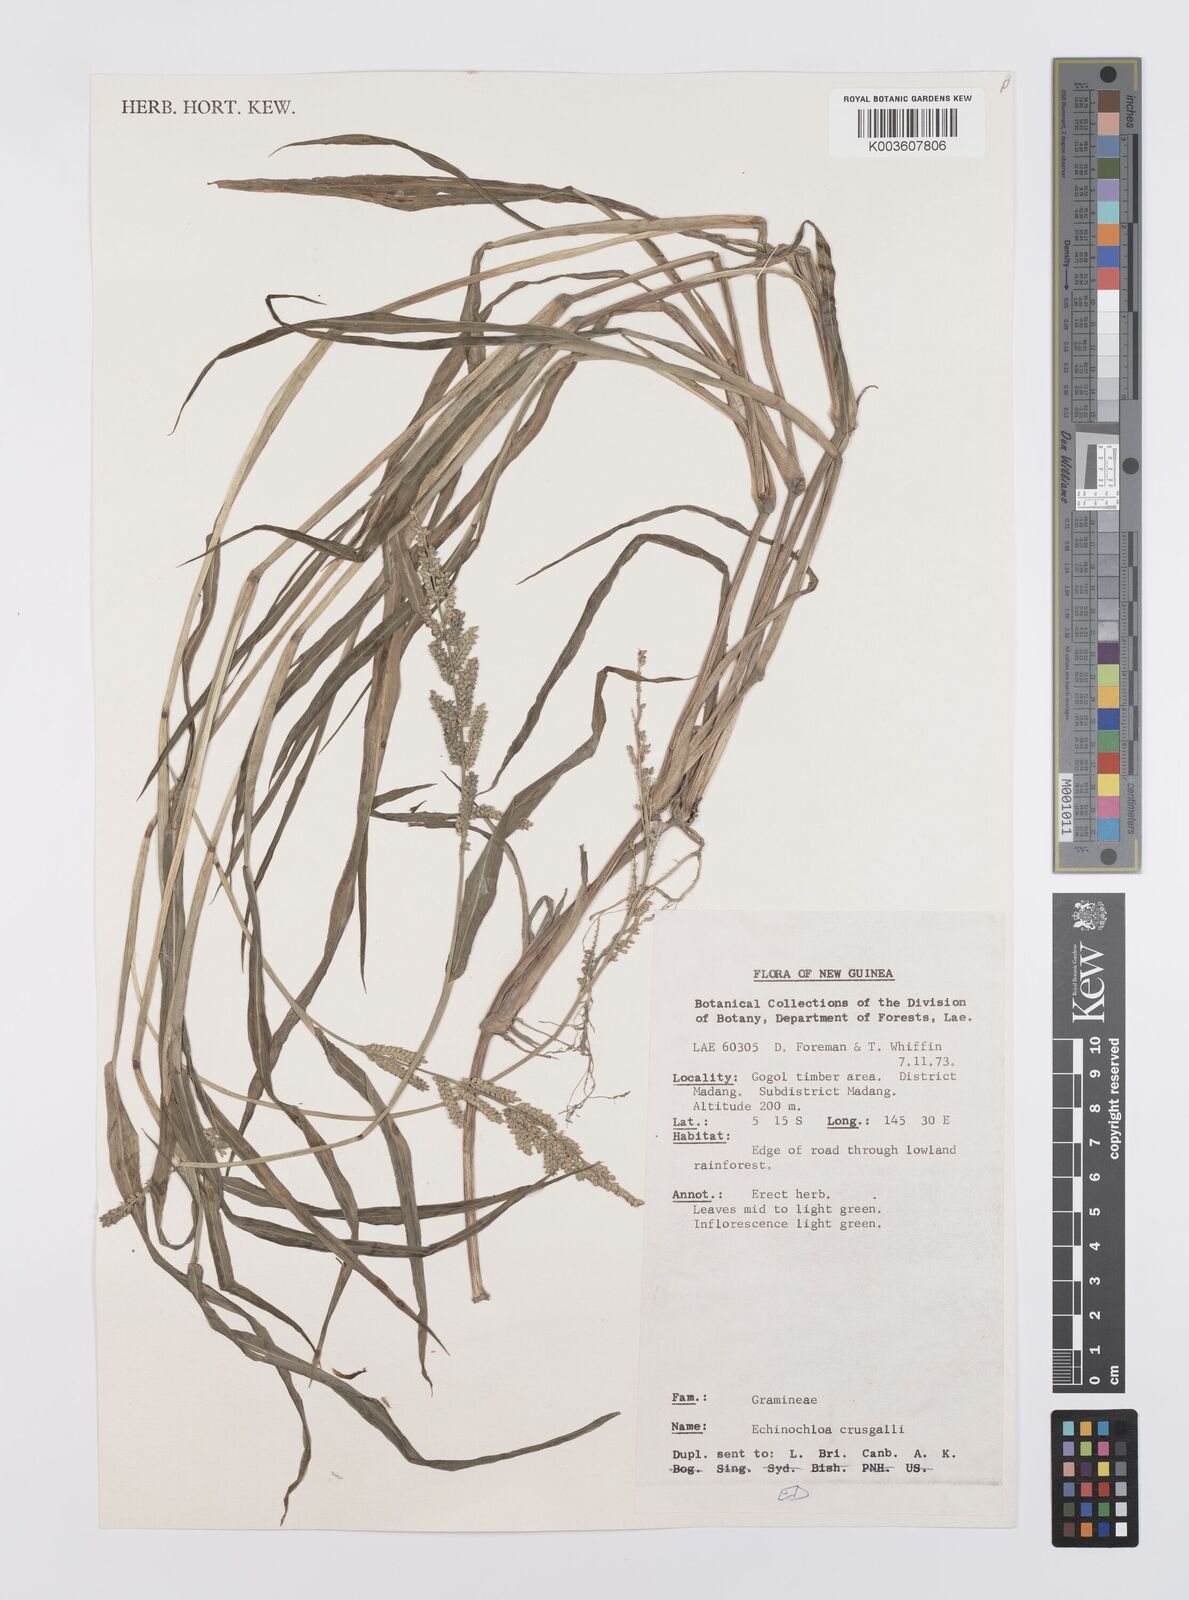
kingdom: Plantae
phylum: Tracheophyta
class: Liliopsida
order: Poales
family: Poaceae
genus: Echinochloa
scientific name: Echinochloa colonum
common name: Jungle rice
